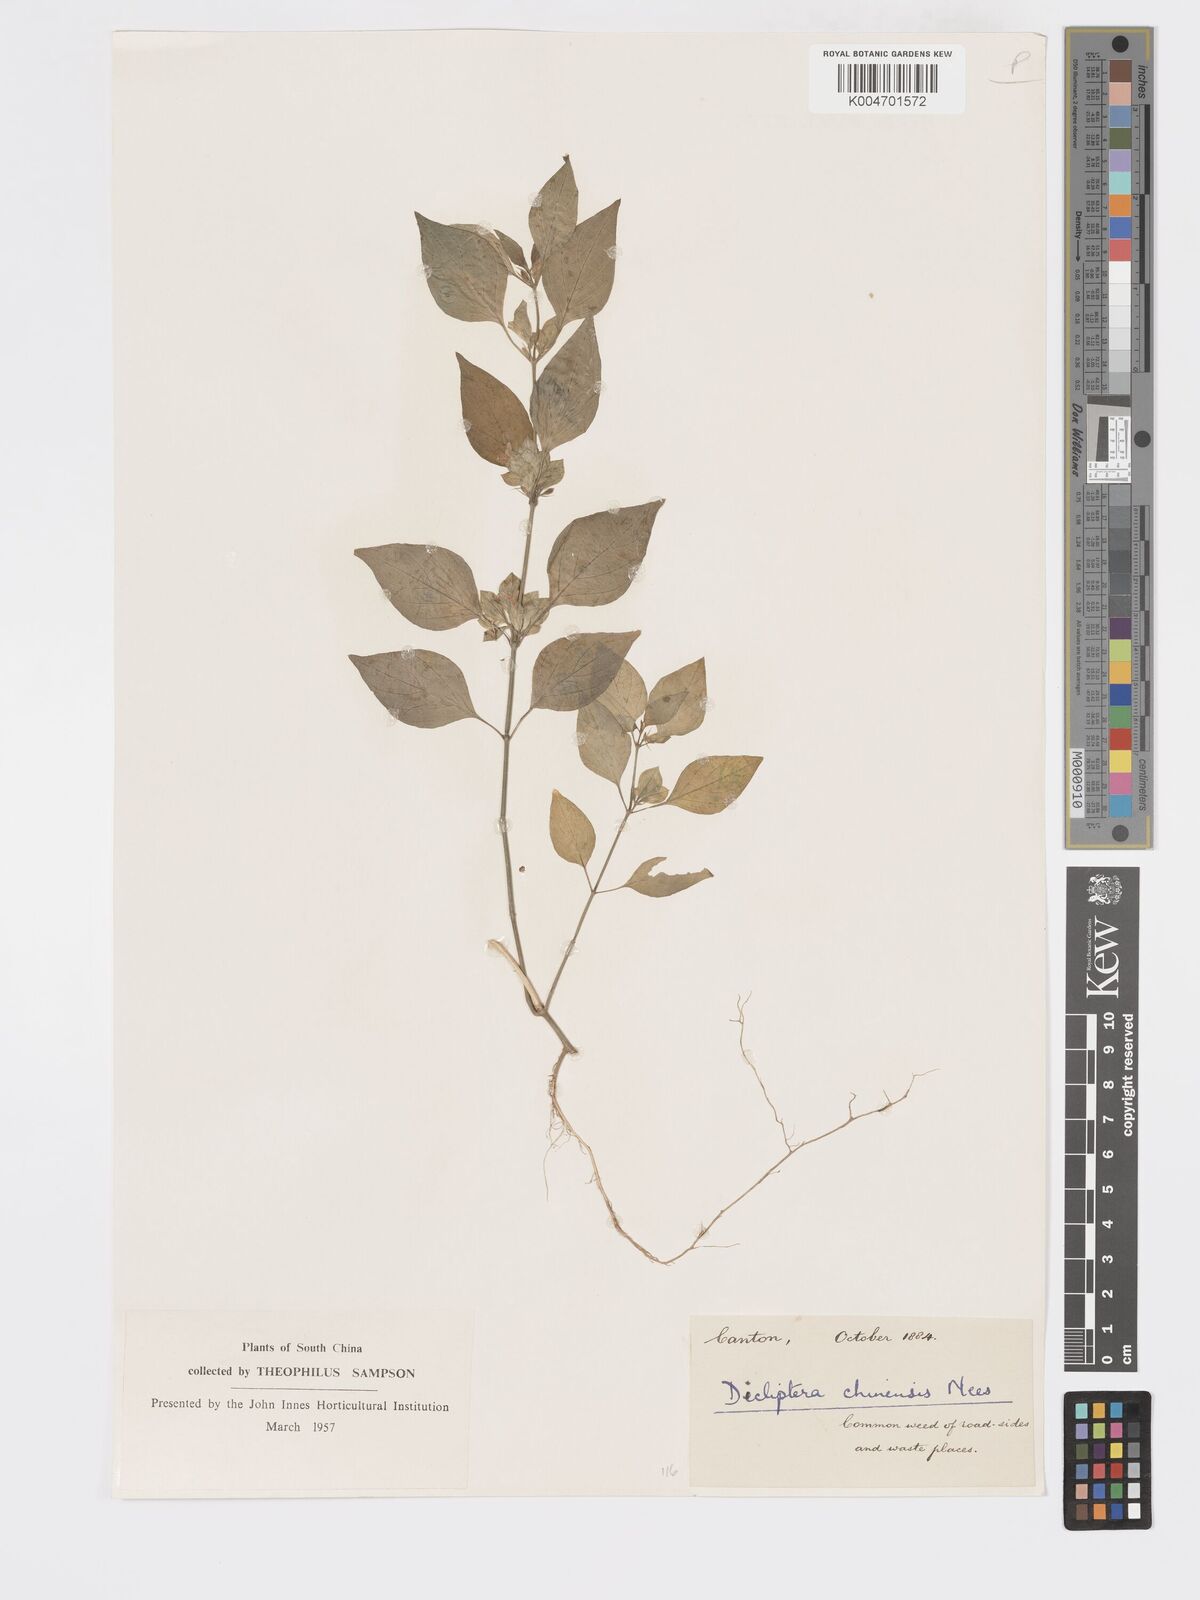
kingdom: Plantae
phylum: Tracheophyta
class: Magnoliopsida
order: Lamiales
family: Acanthaceae
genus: Dicliptera
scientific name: Dicliptera chinensis
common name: Chinese foldwing
